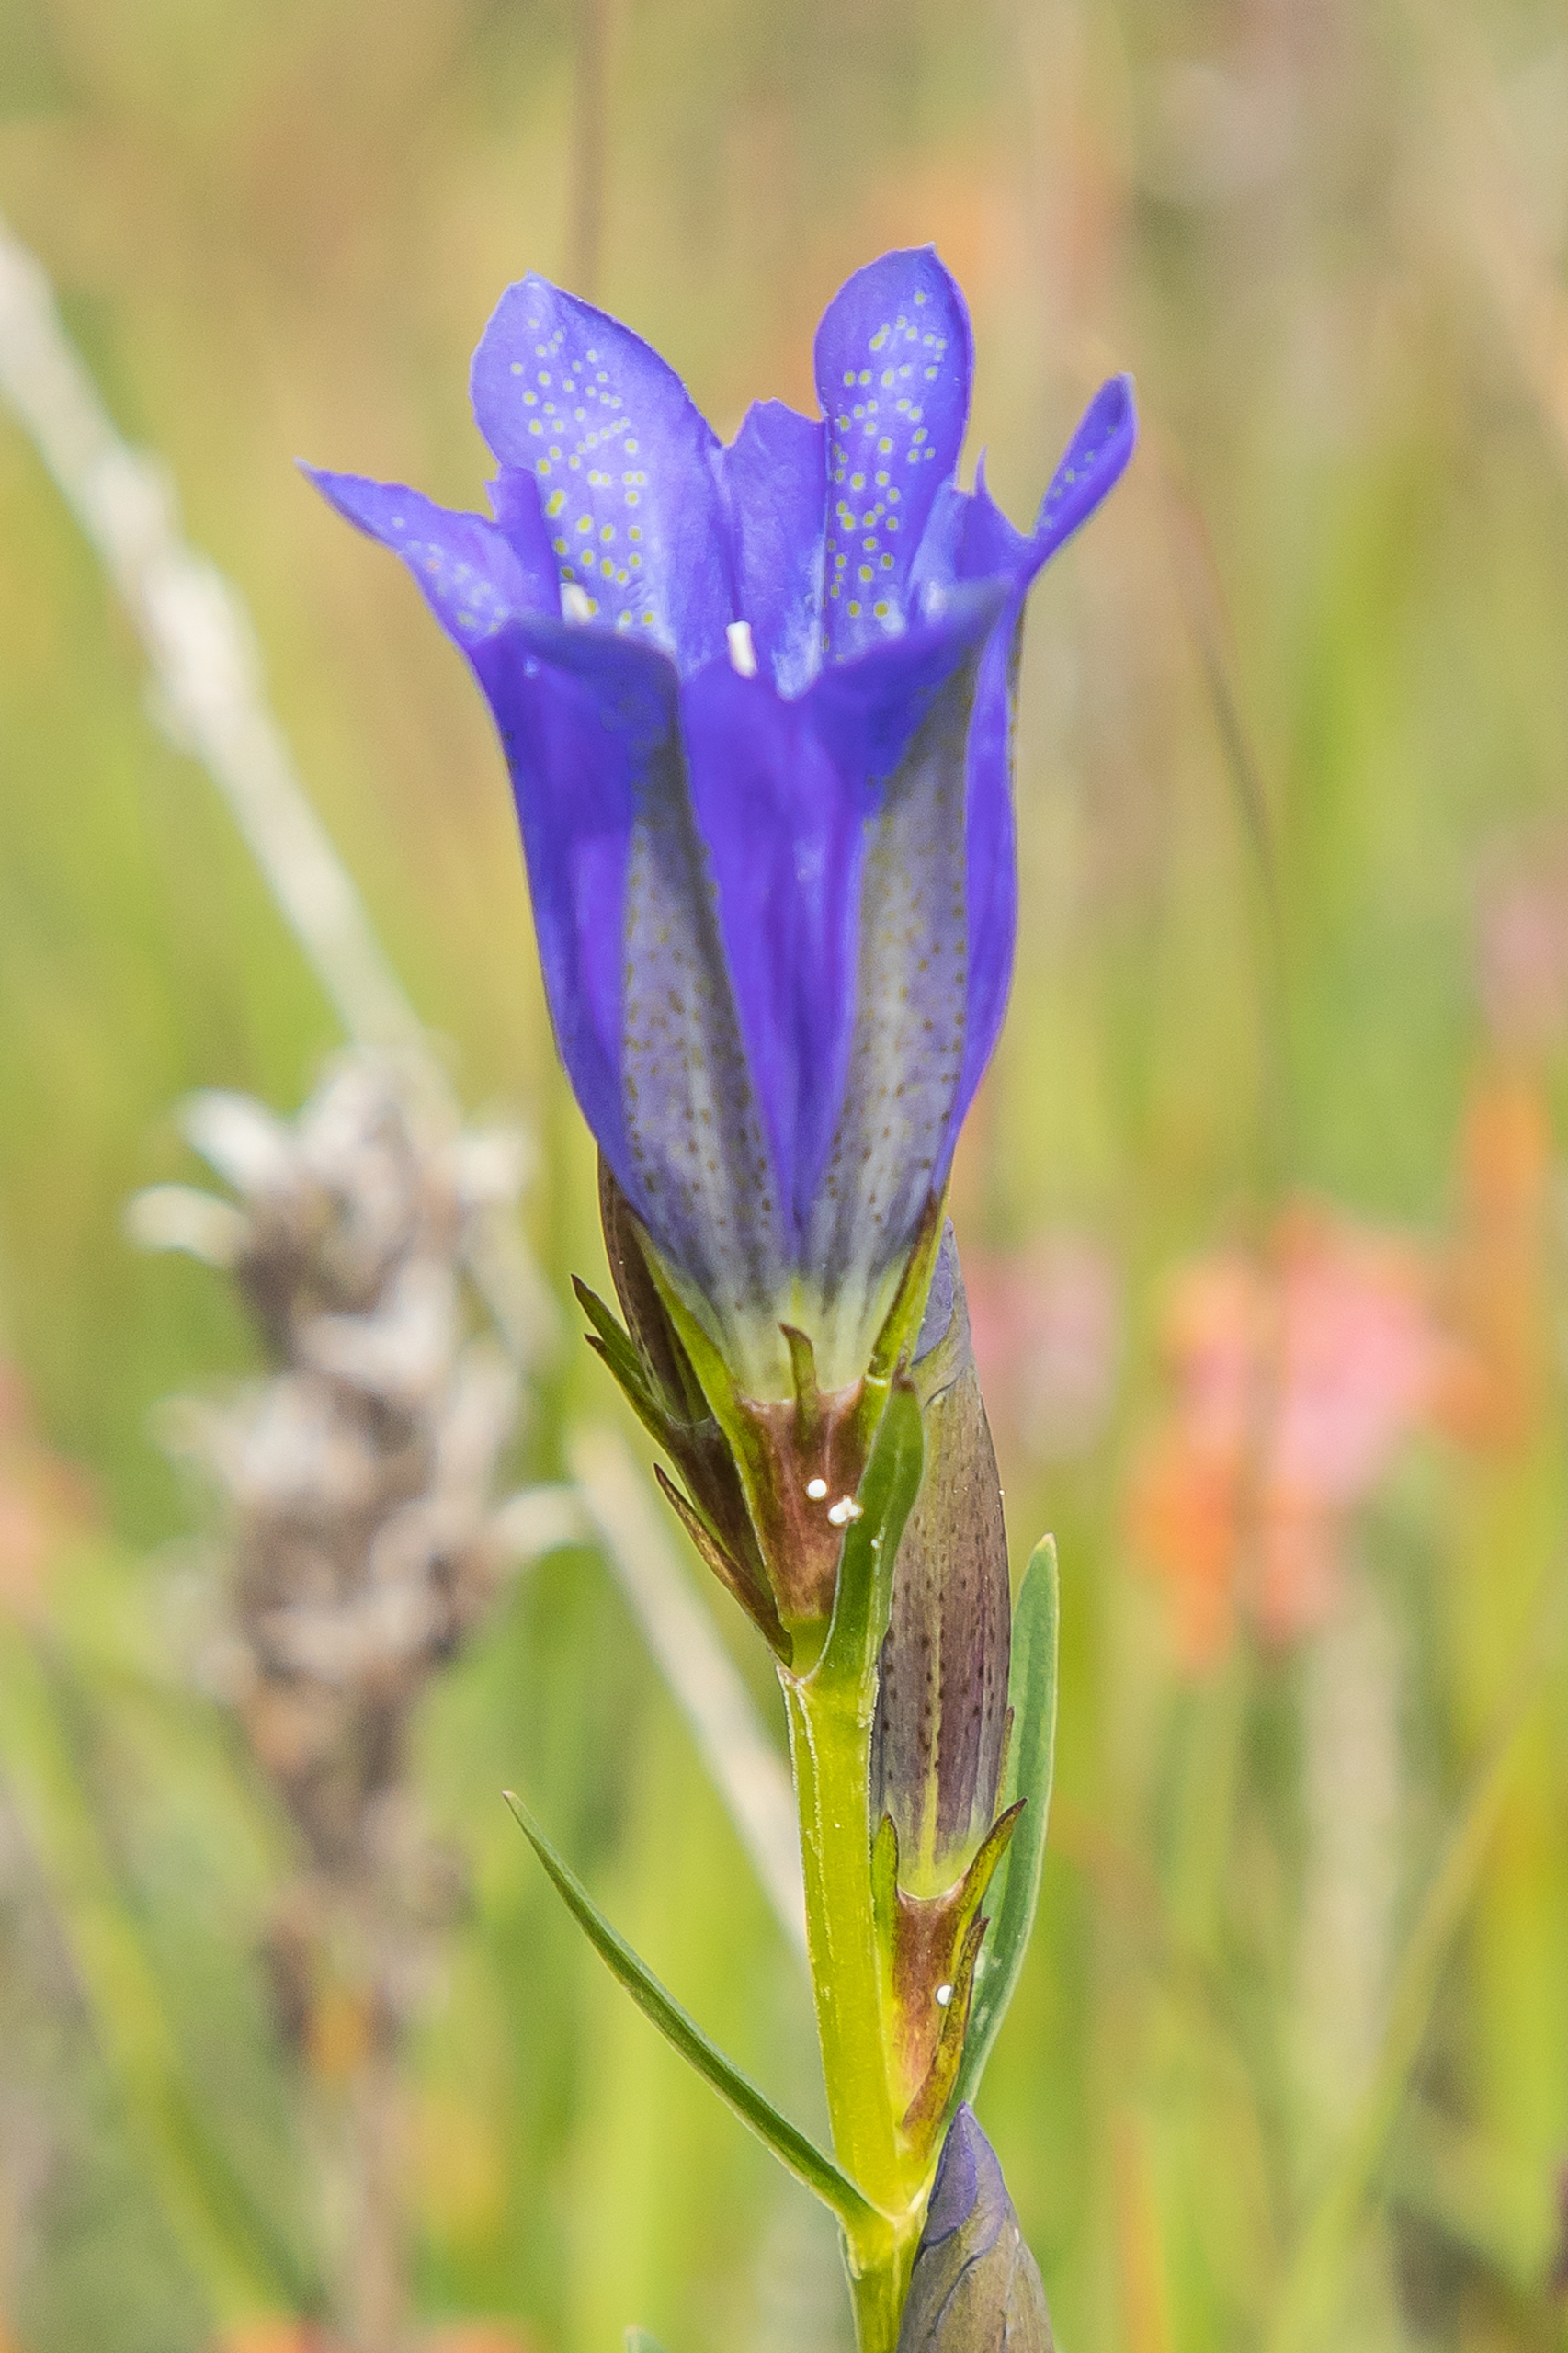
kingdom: Plantae
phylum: Tracheophyta
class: Magnoliopsida
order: Gentianales
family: Gentianaceae
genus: Gentiana
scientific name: Gentiana pneumonanthe
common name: Klokke-ensian
